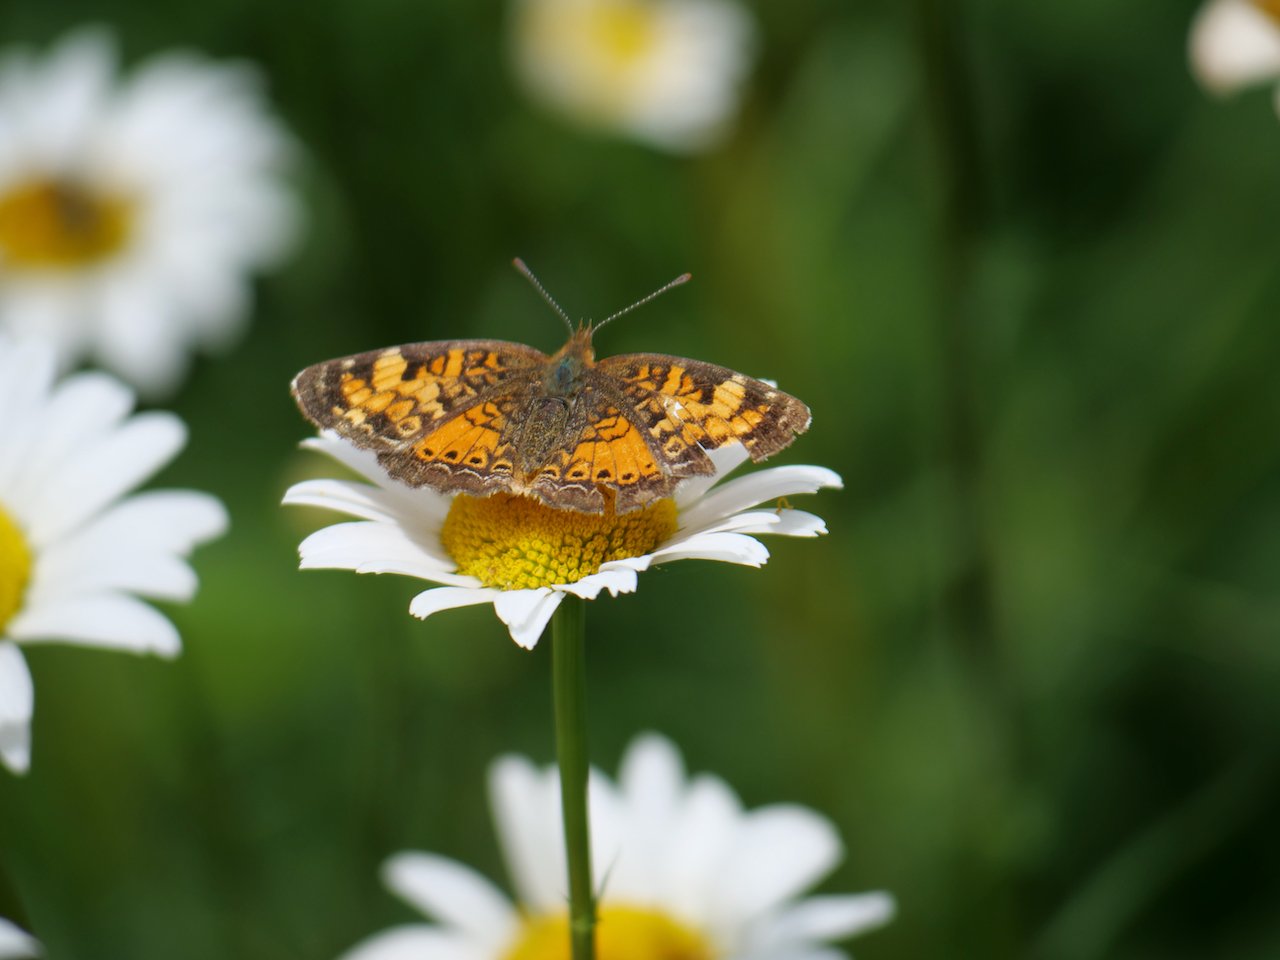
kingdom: Animalia
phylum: Arthropoda
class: Insecta
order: Lepidoptera
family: Nymphalidae
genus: Phyciodes
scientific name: Phyciodes tharos
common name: Northern Crescent
